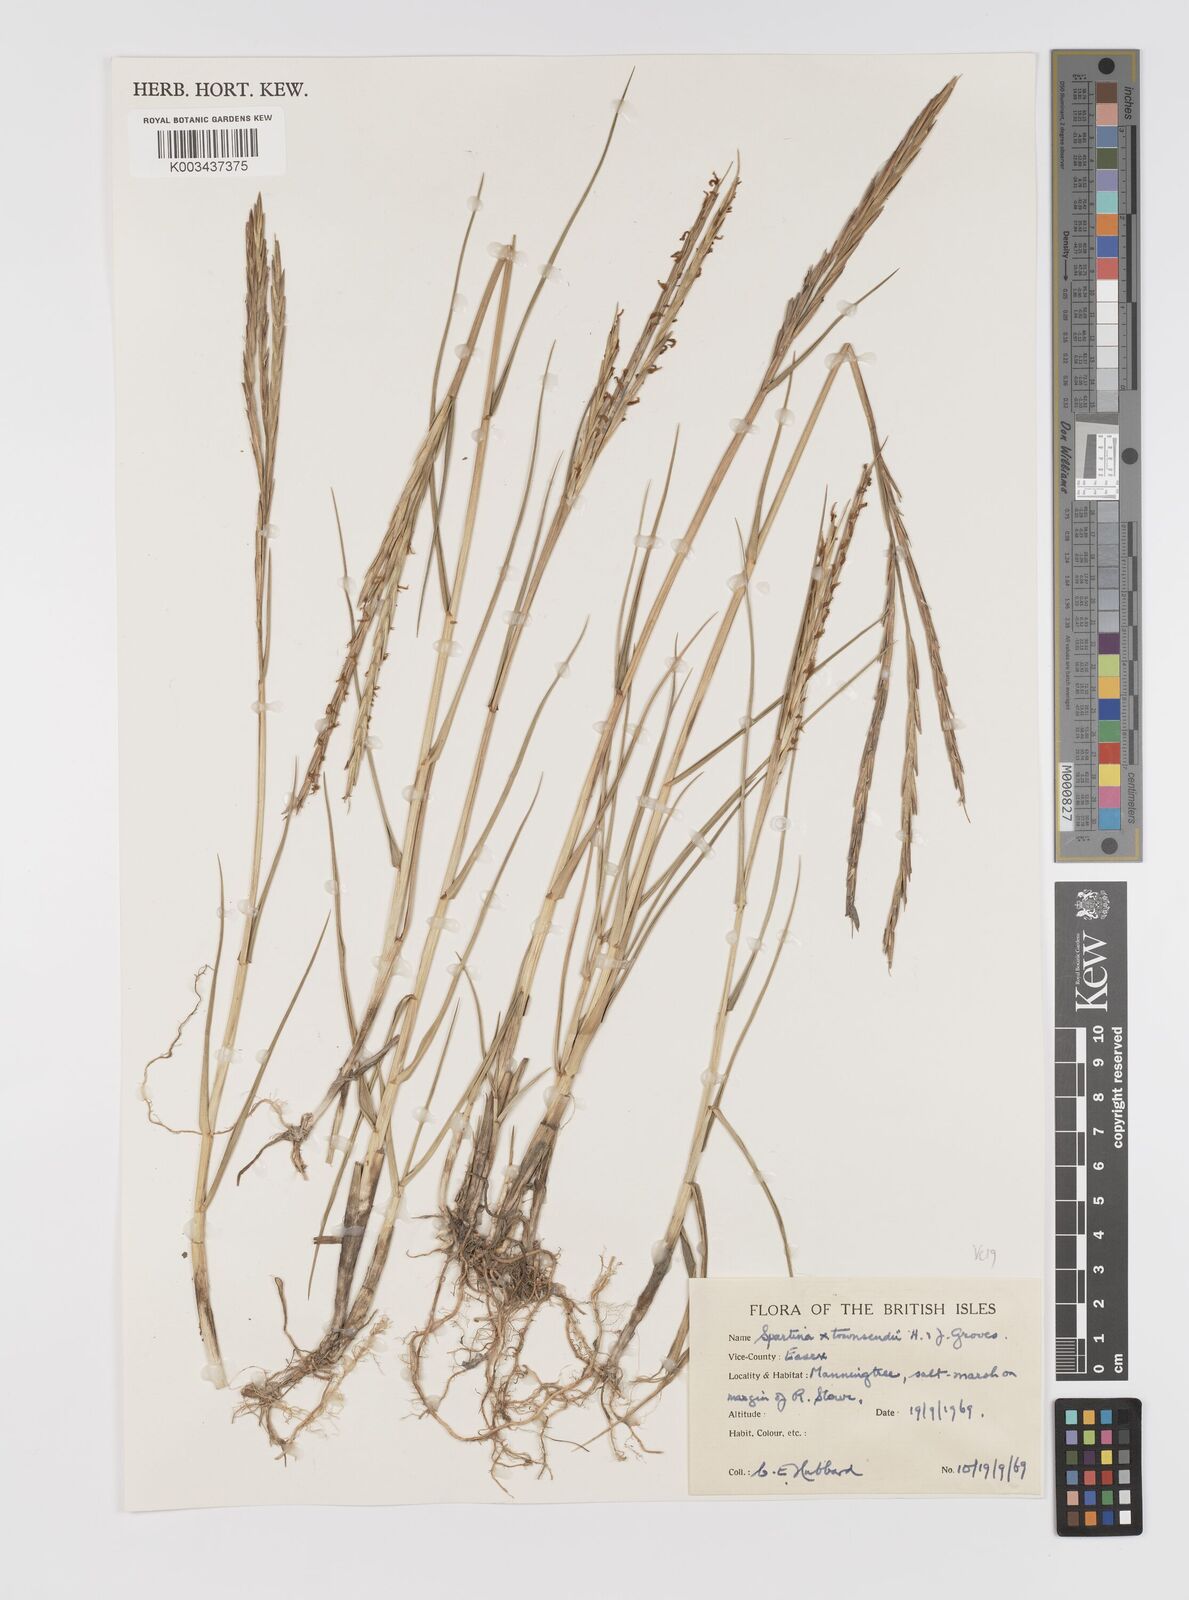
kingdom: Plantae
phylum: Tracheophyta
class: Liliopsida
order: Poales
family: Poaceae
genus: Sporobolus
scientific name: Sporobolus townsendii
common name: Townsend's cordgrass
